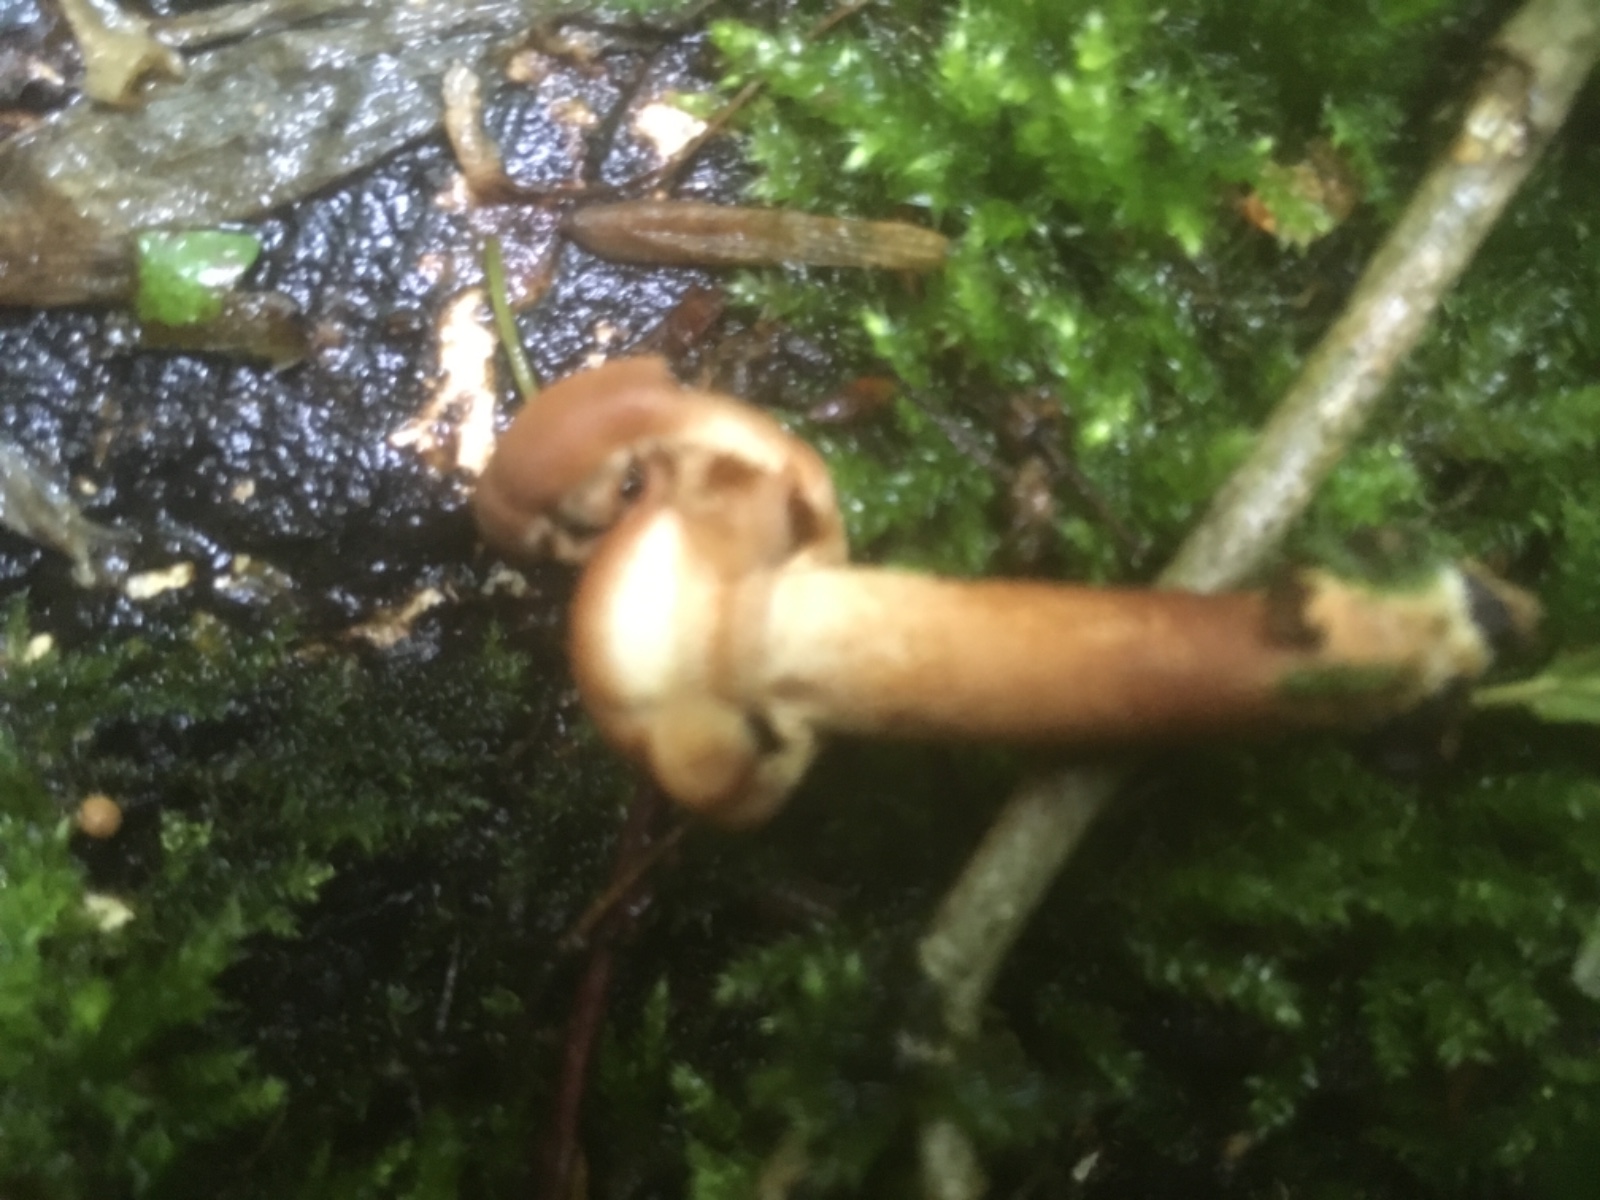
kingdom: Fungi
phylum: Basidiomycota
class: Agaricomycetes
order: Agaricales
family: Strophariaceae
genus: Kuehneromyces
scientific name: Kuehneromyces mutabilis
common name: foranderlig skælhat
